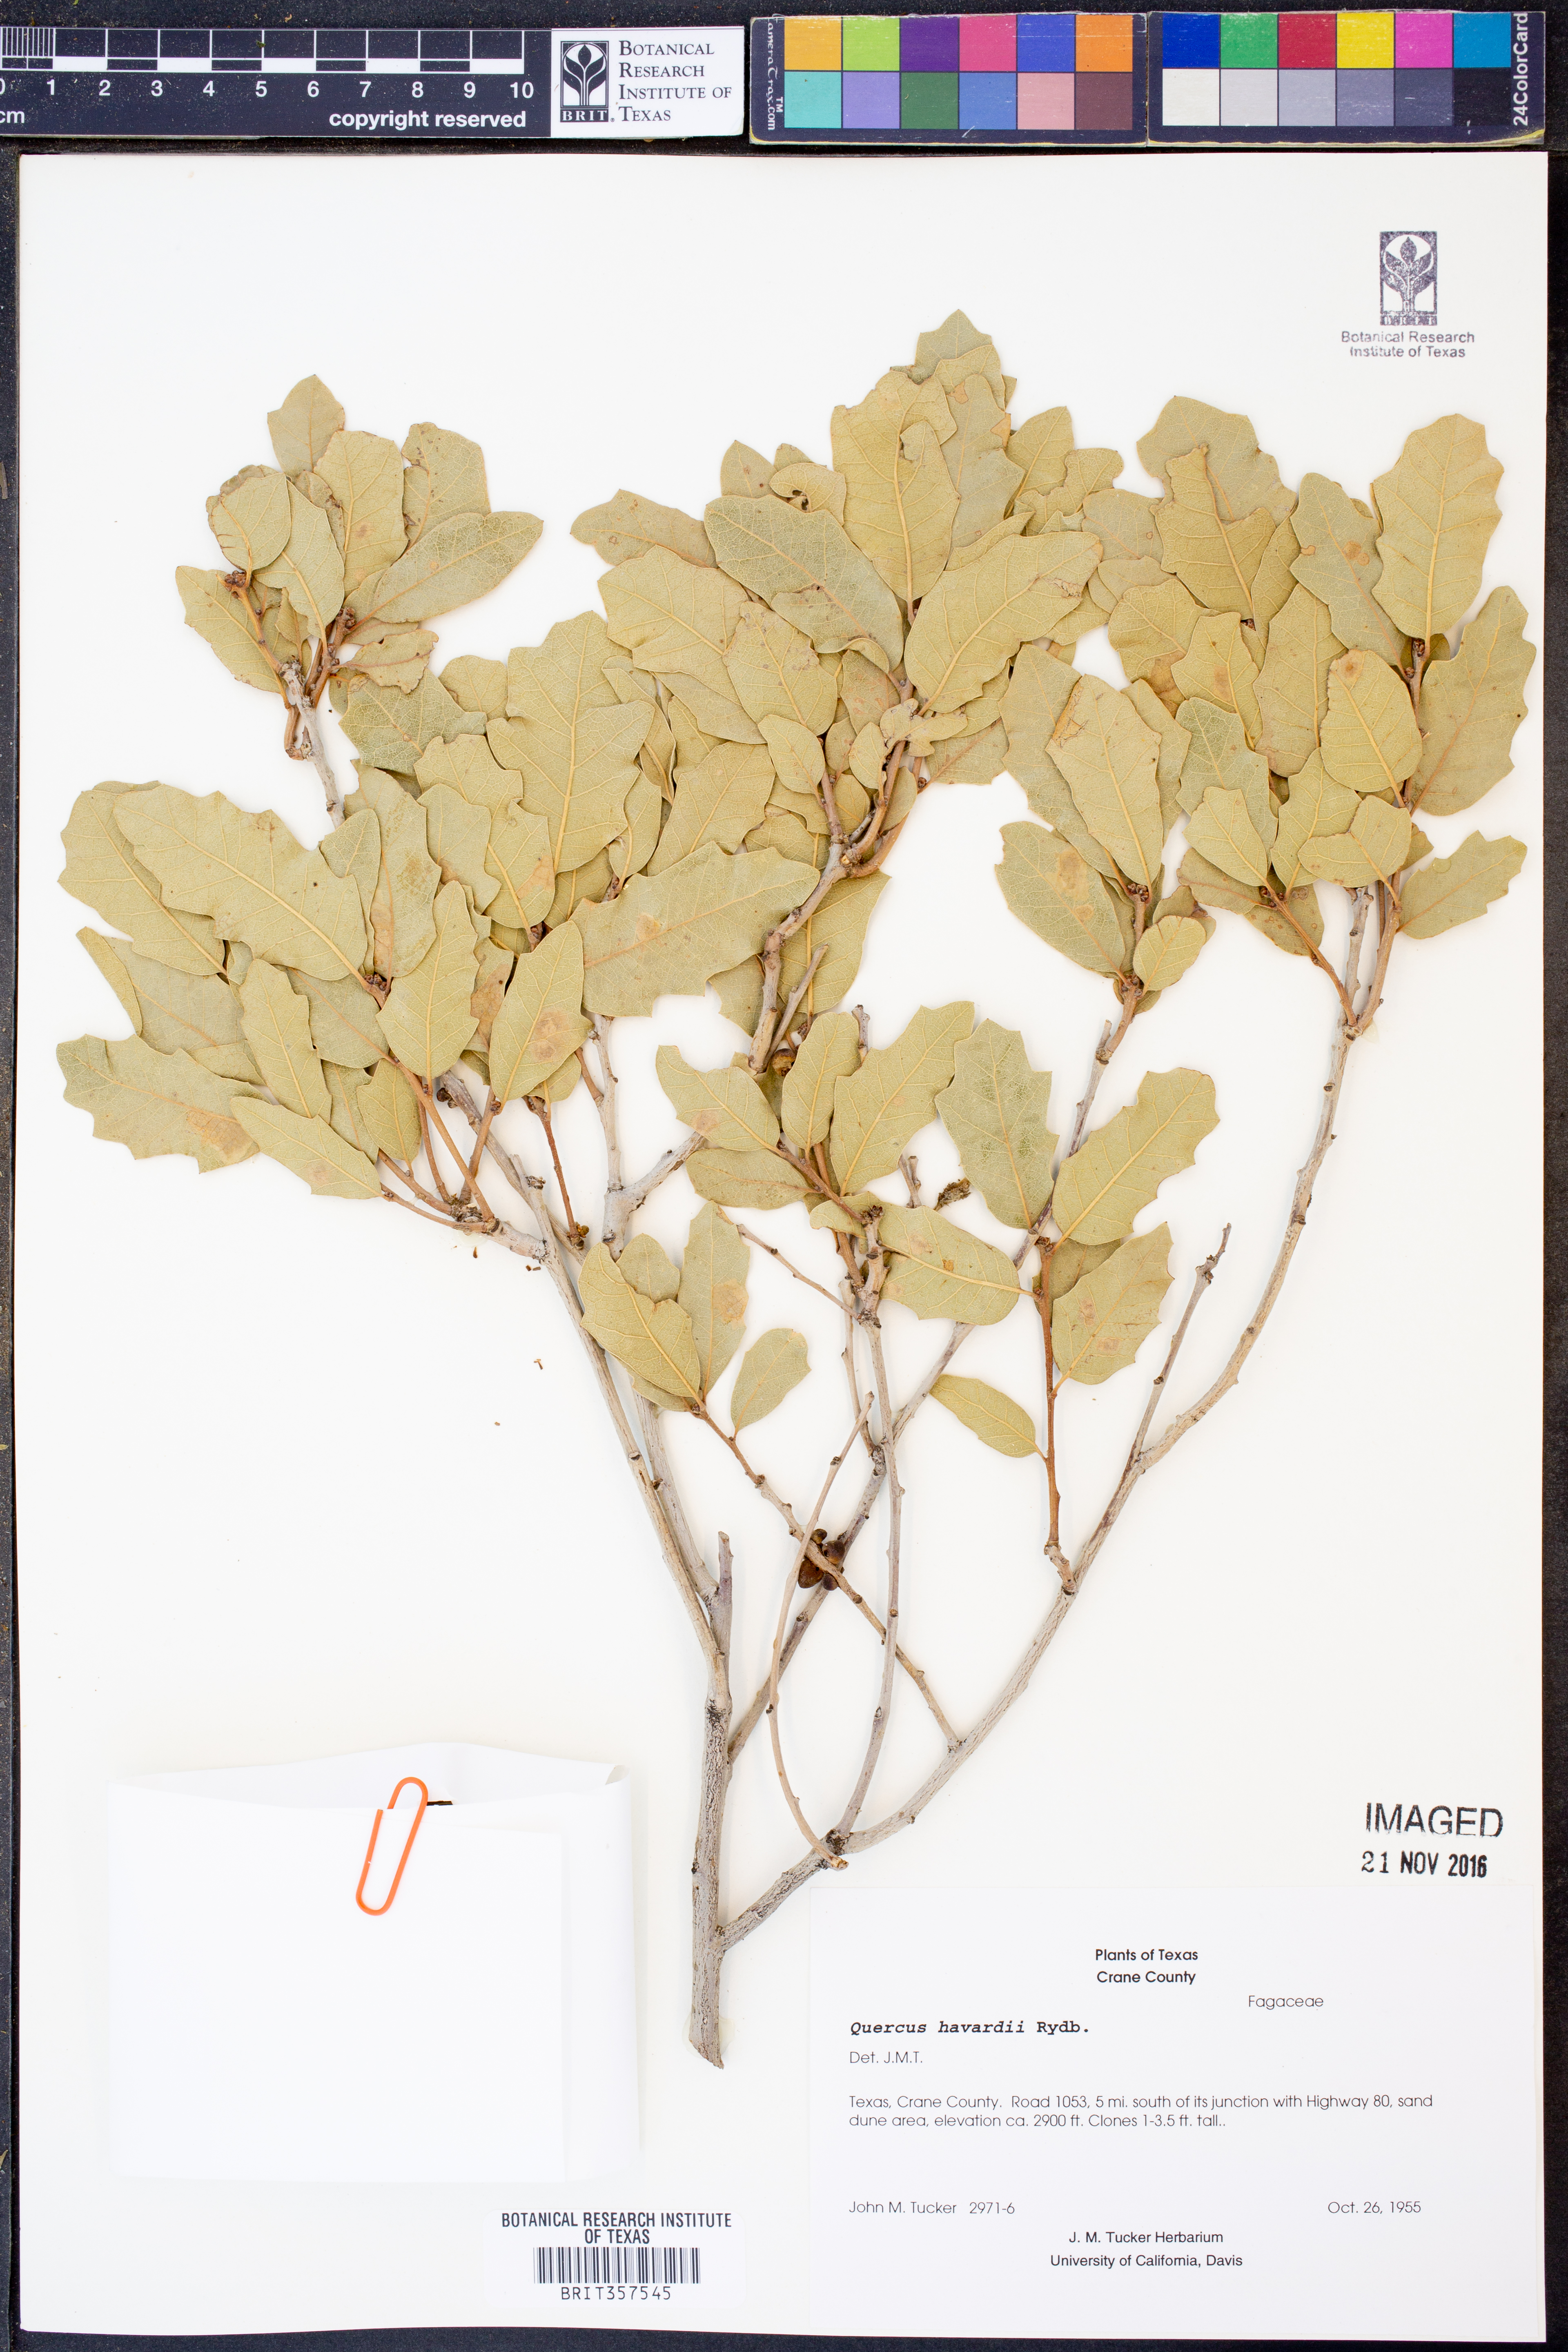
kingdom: Plantae
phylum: Tracheophyta
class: Magnoliopsida
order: Fagales
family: Fagaceae
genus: Quercus
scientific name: Quercus havardii
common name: Shinnery oak
